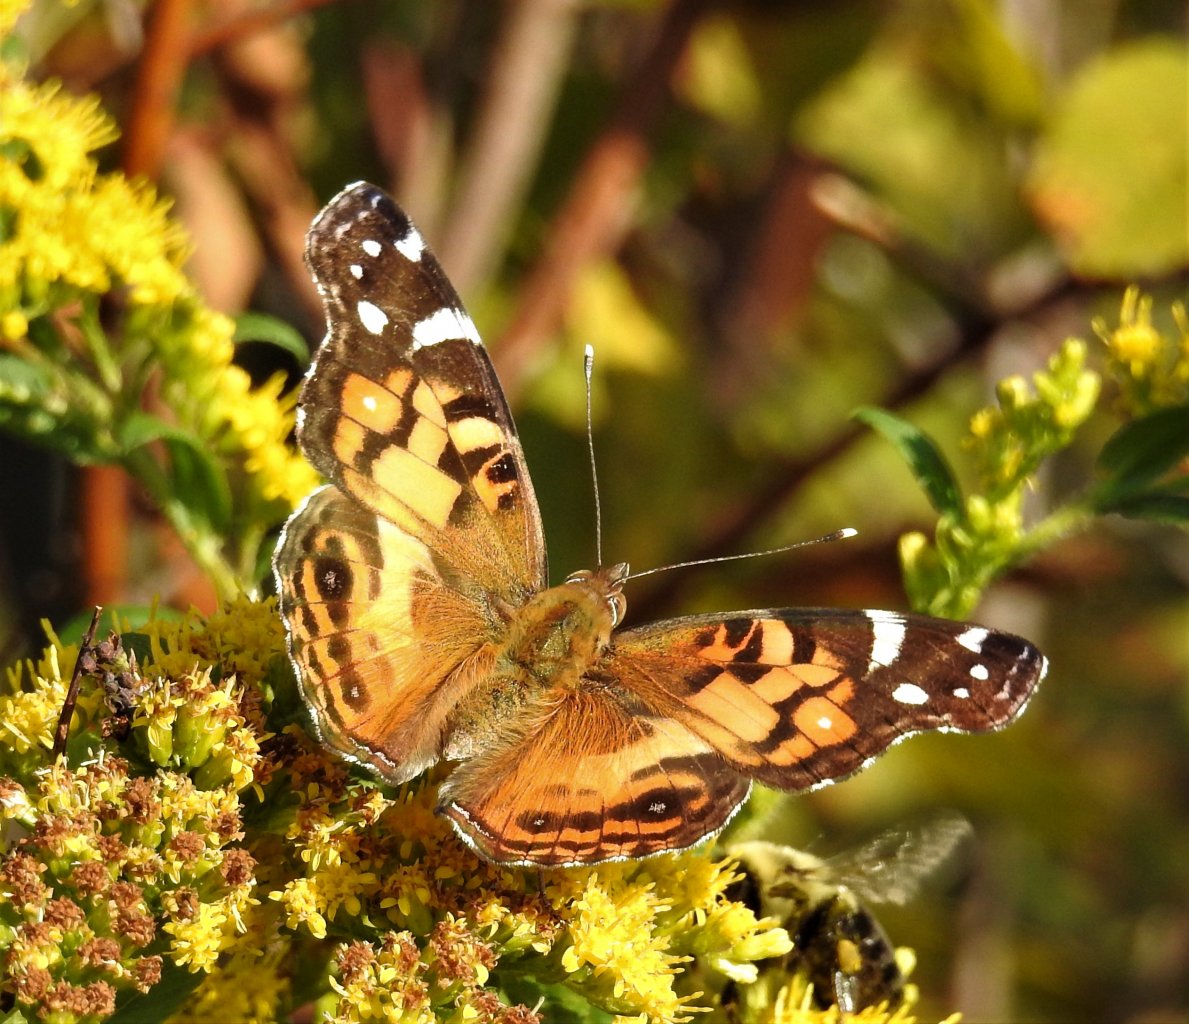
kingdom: Animalia
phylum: Arthropoda
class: Insecta
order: Lepidoptera
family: Nymphalidae
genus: Vanessa
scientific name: Vanessa virginiensis
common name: American Lady
